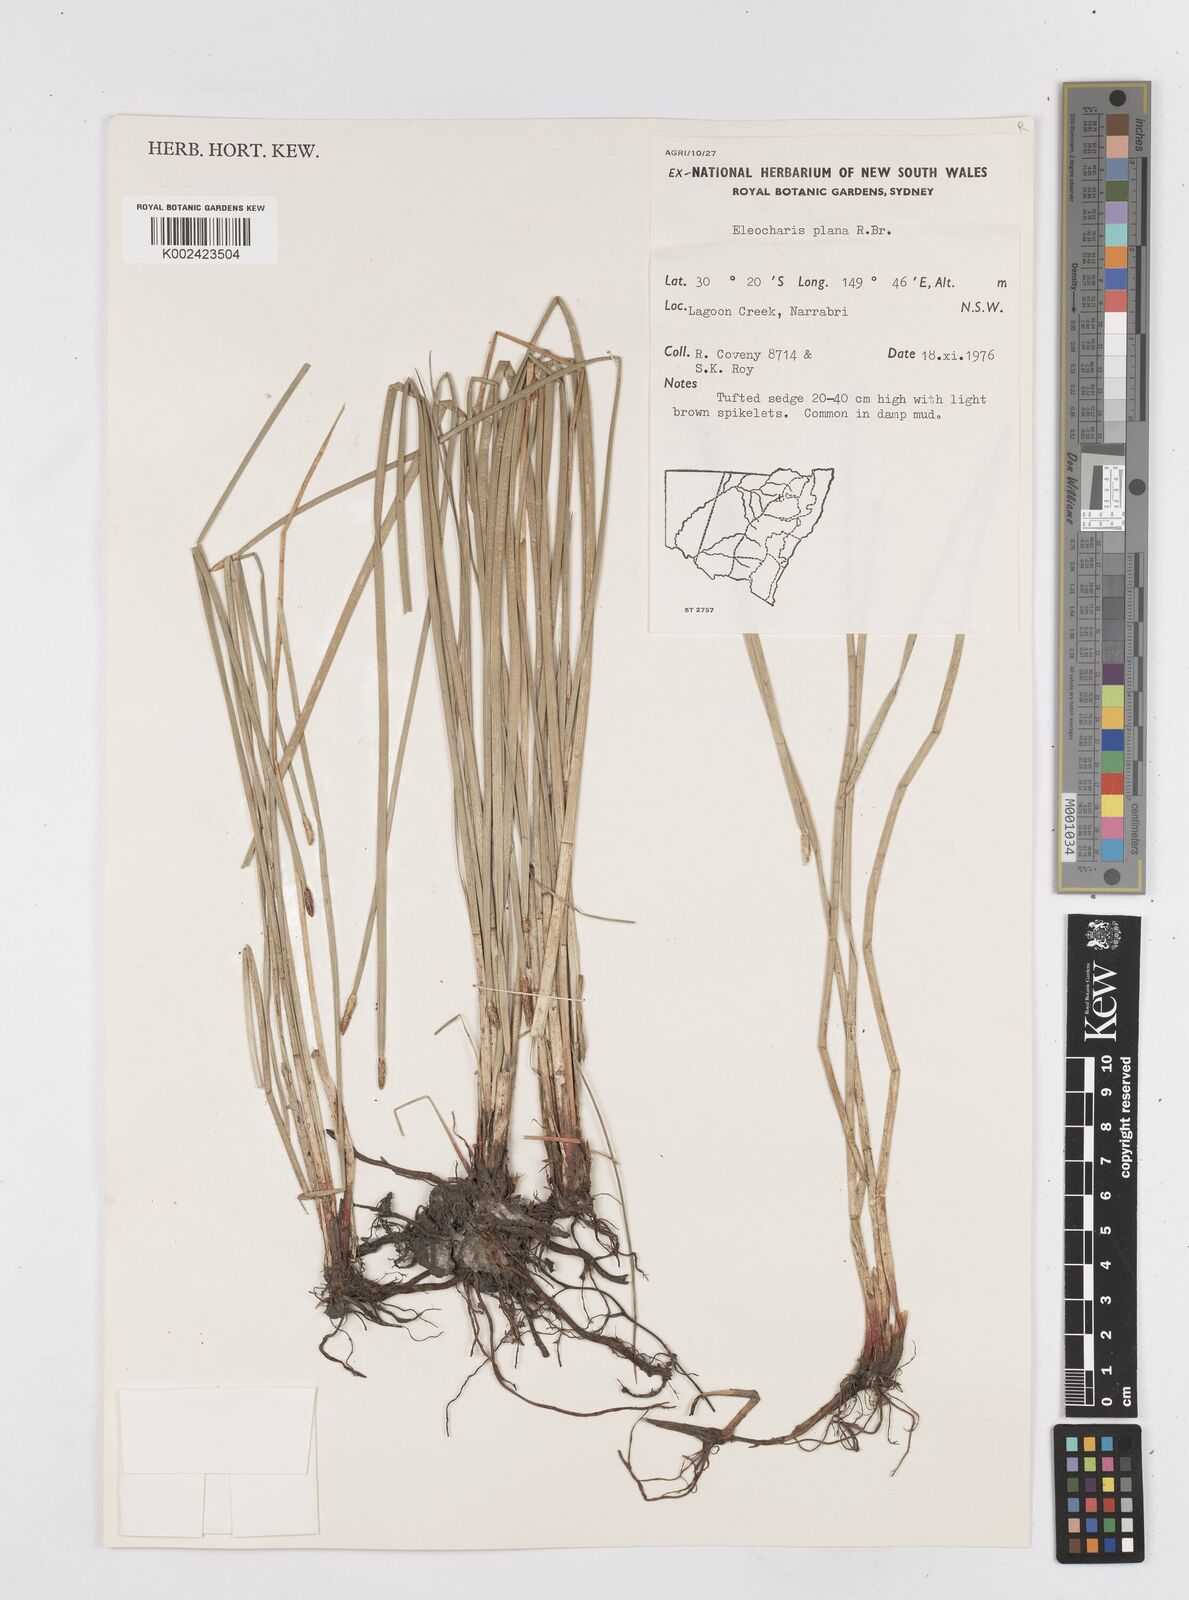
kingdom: Plantae
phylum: Tracheophyta
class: Liliopsida
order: Poales
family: Cyperaceae
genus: Eleocharis
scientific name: Eleocharis plana
